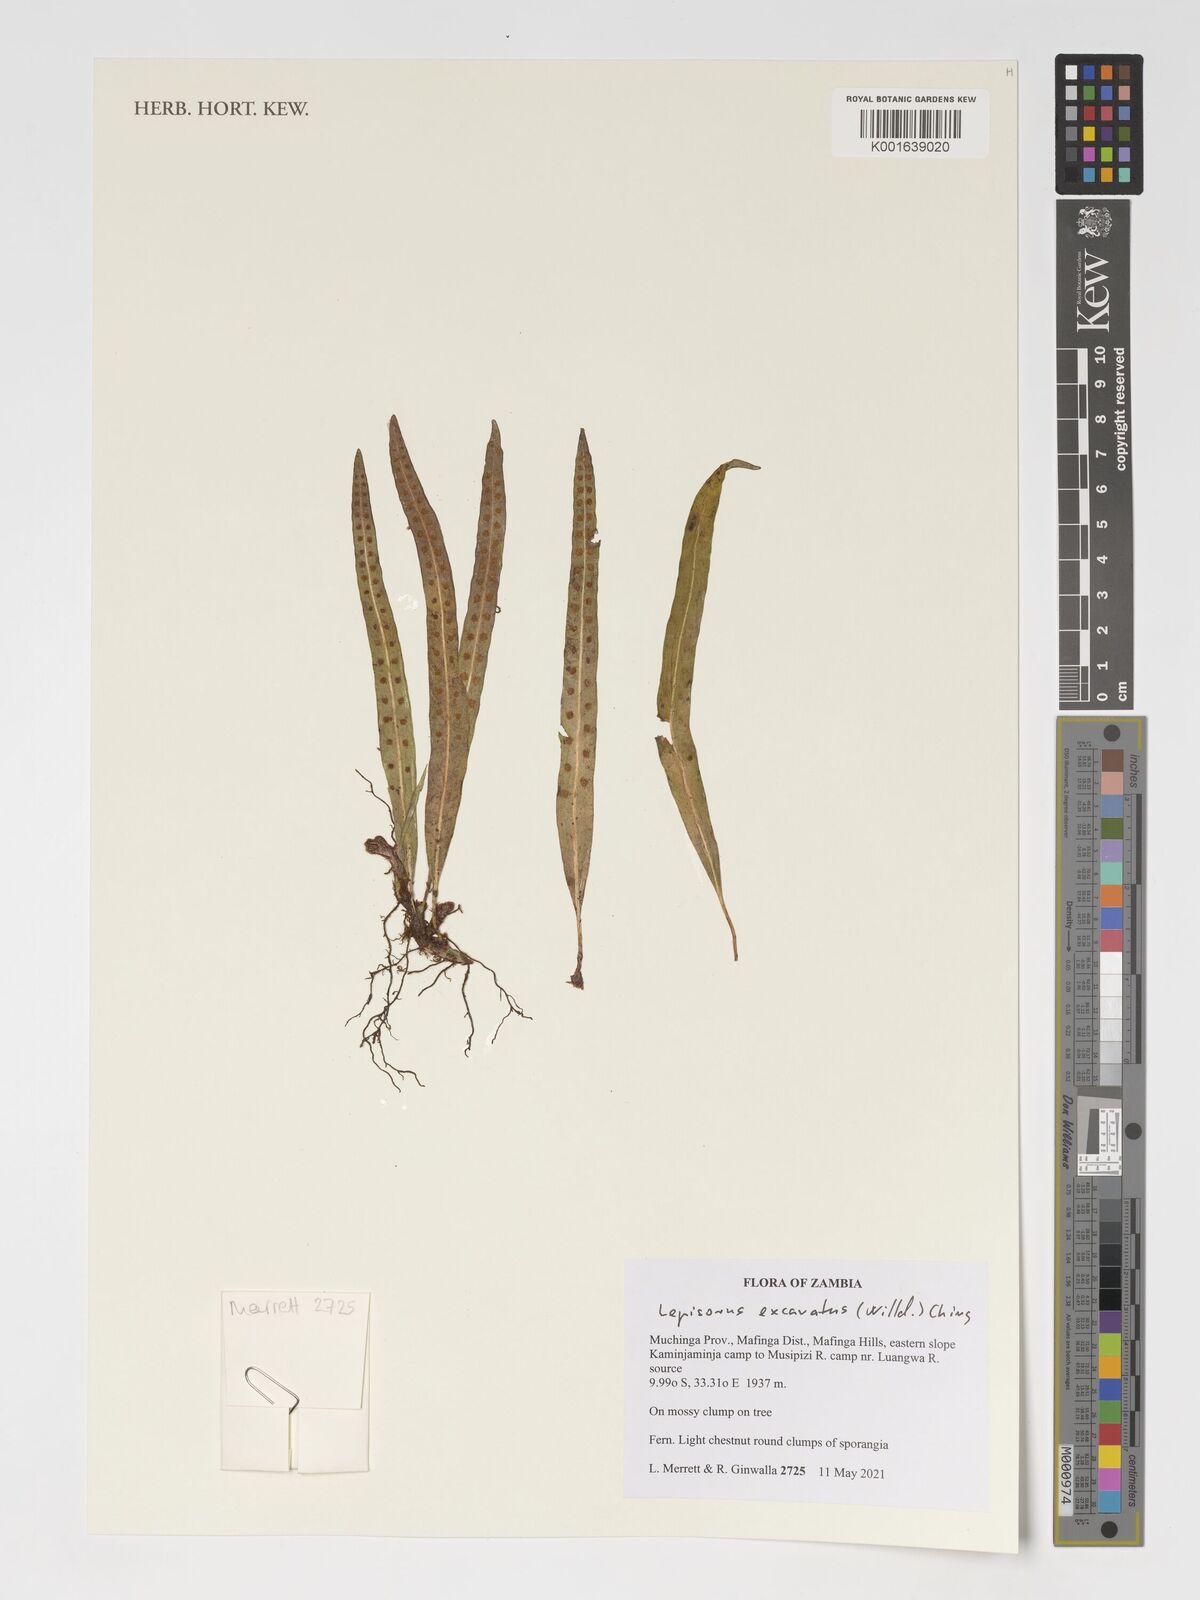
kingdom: Plantae
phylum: Tracheophyta
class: Polypodiopsida
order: Polypodiales
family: Polypodiaceae
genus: Lepisorus
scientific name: Lepisorus excavatus
